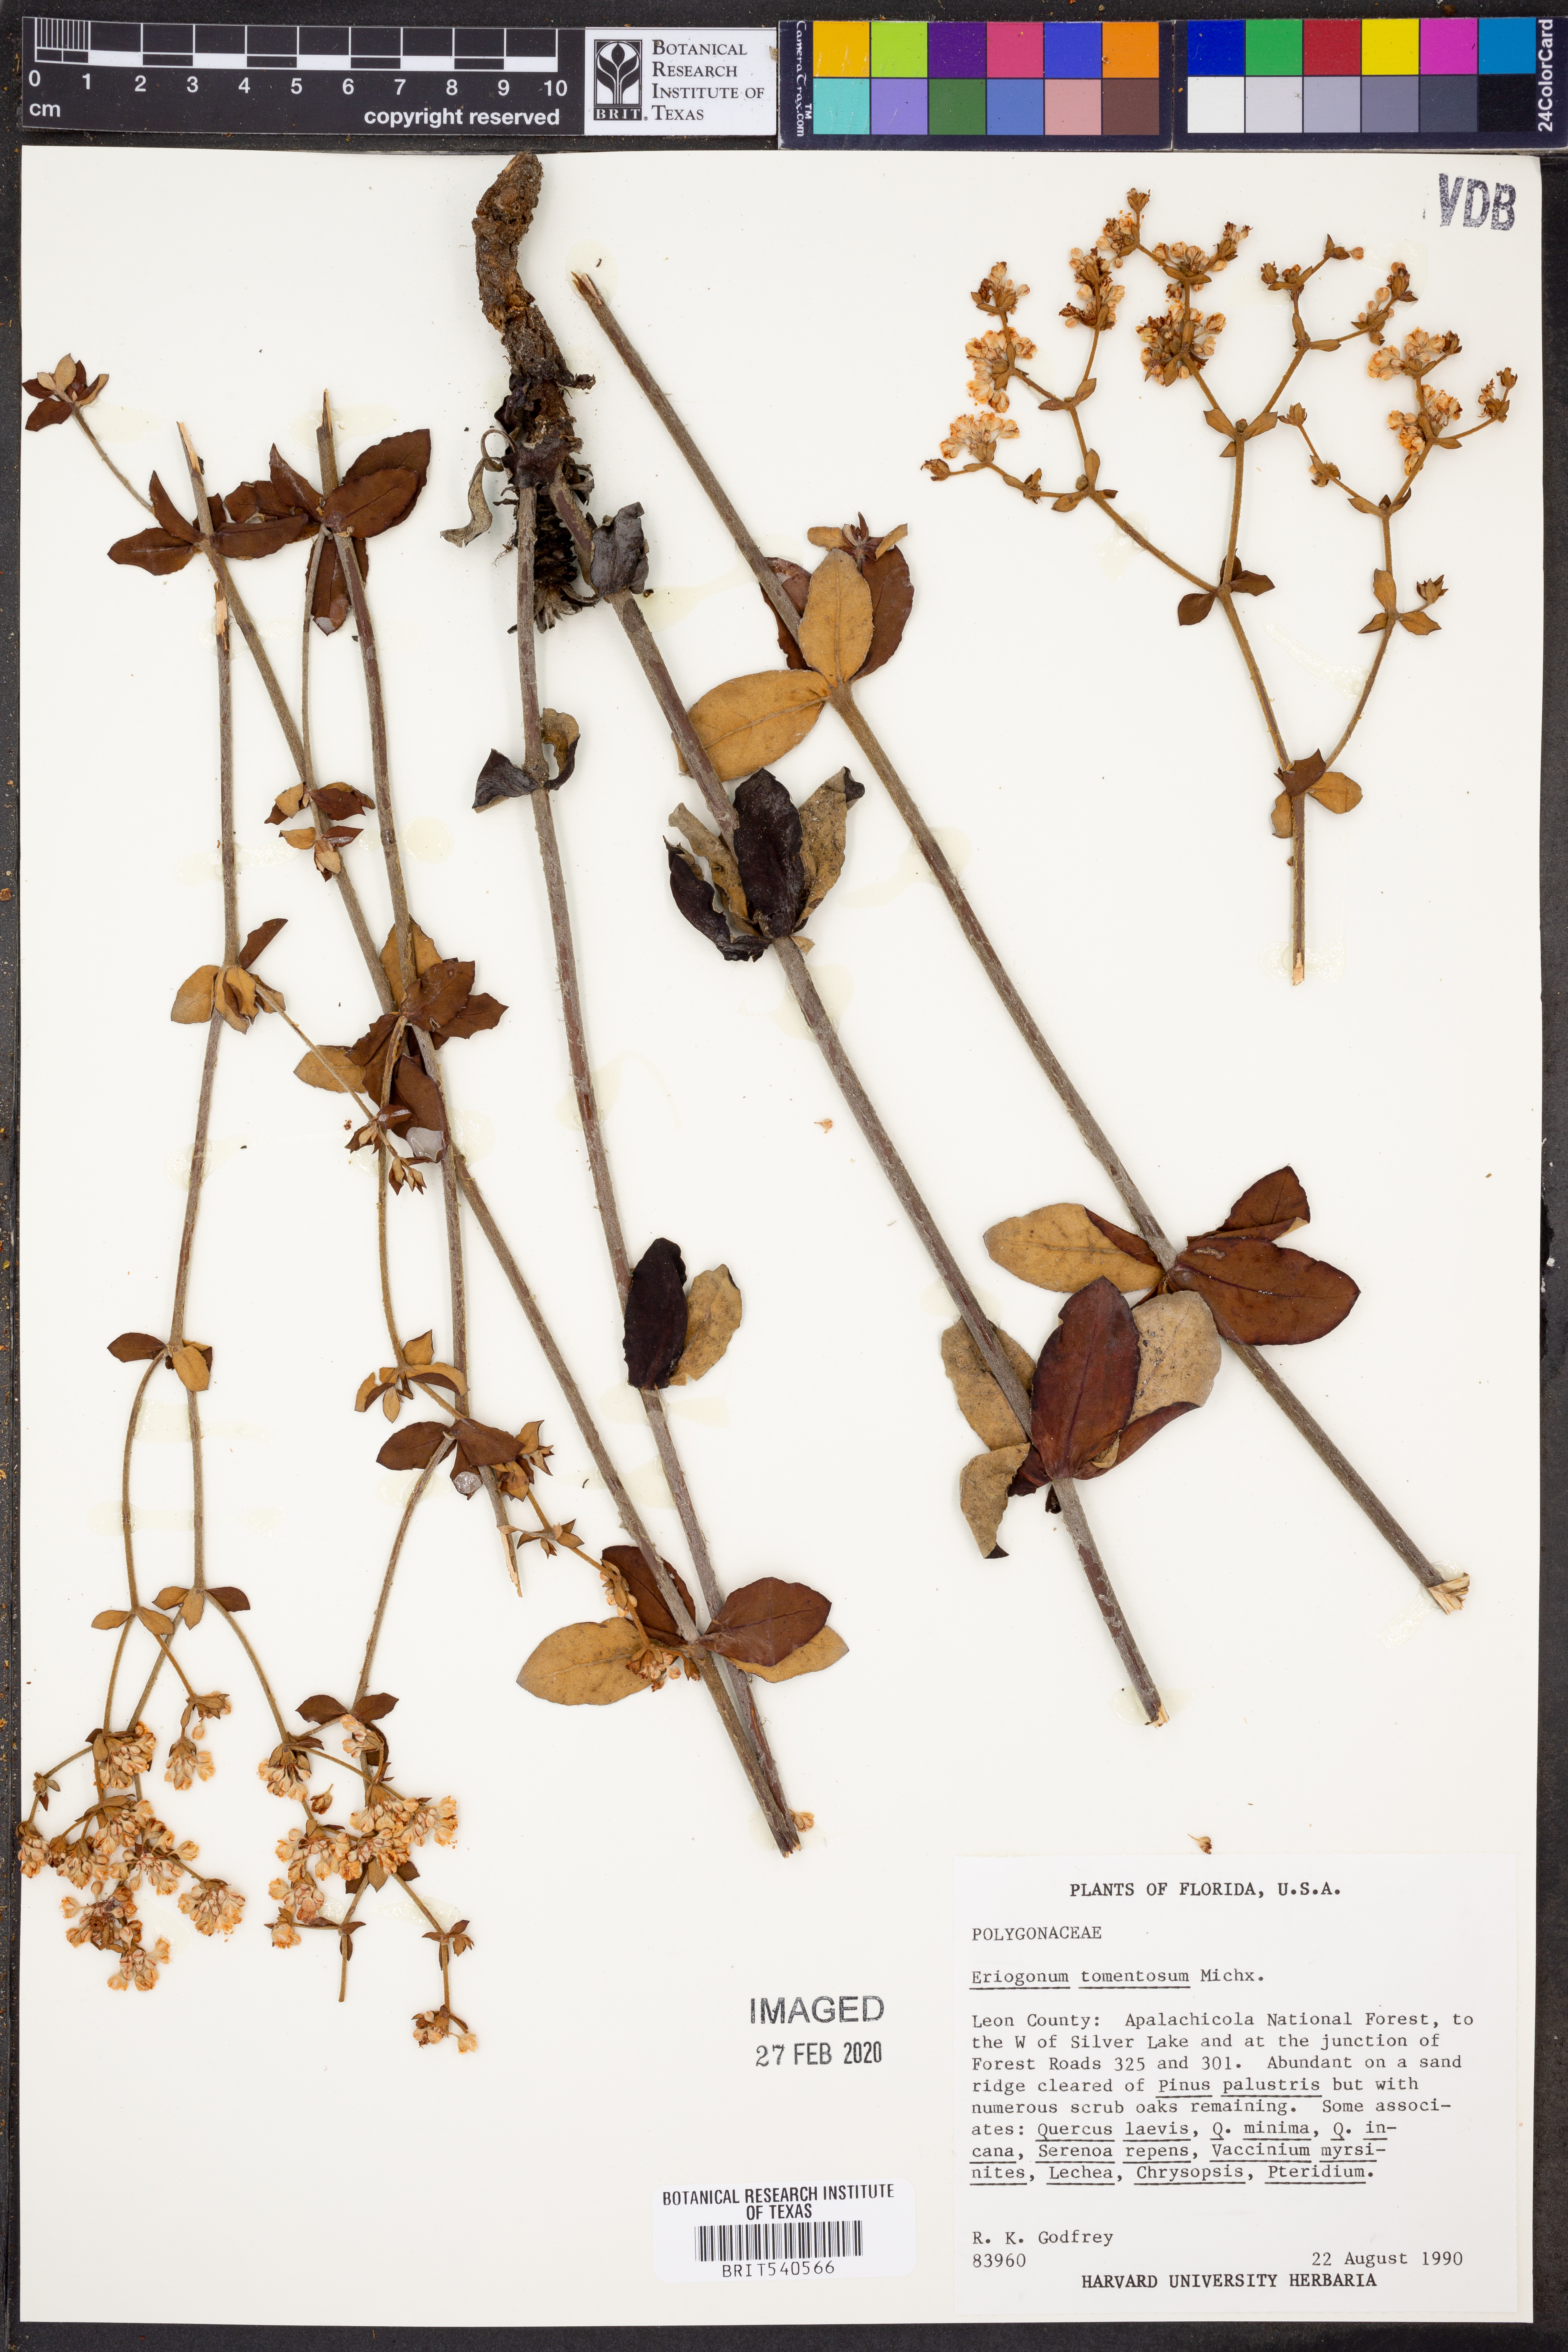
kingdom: Plantae
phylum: Tracheophyta
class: Magnoliopsida
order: Caryophyllales
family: Polygonaceae
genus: Eriogonum
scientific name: Eriogonum tomentosum
